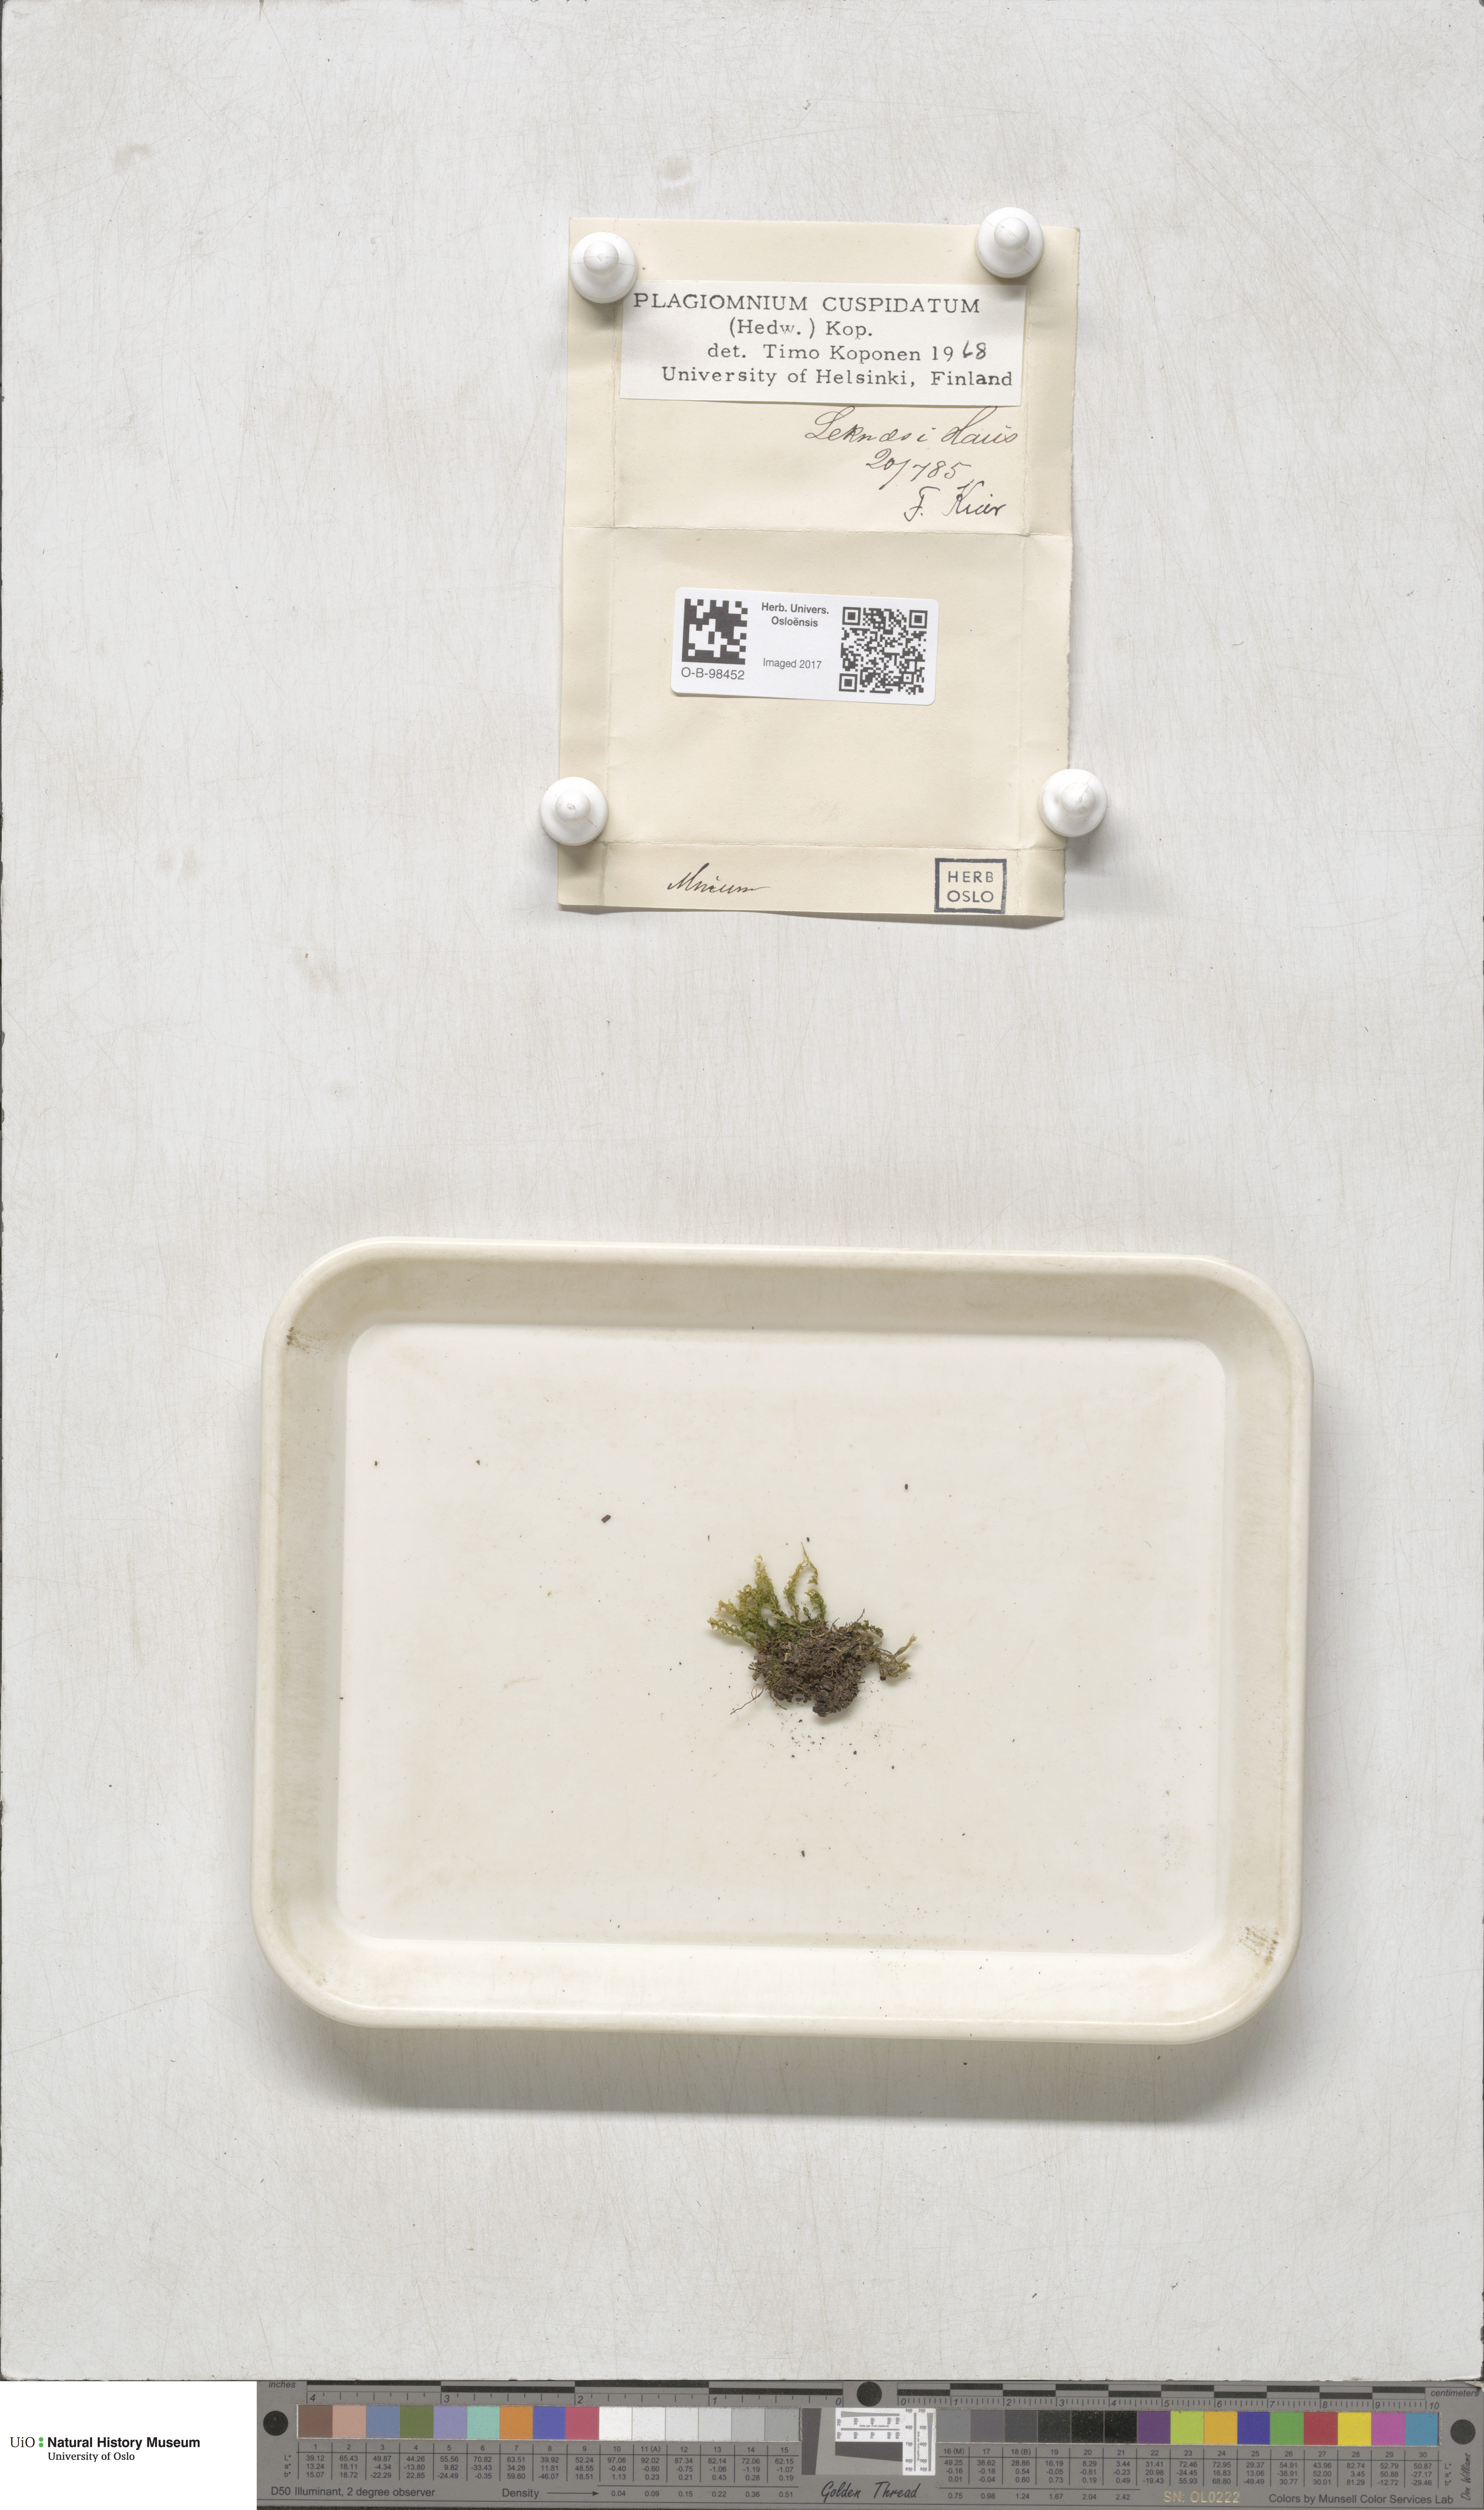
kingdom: Plantae
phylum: Bryophyta
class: Bryopsida
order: Bryales
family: Mniaceae
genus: Plagiomnium
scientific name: Plagiomnium cuspidatum
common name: Woodsy leafy moss
